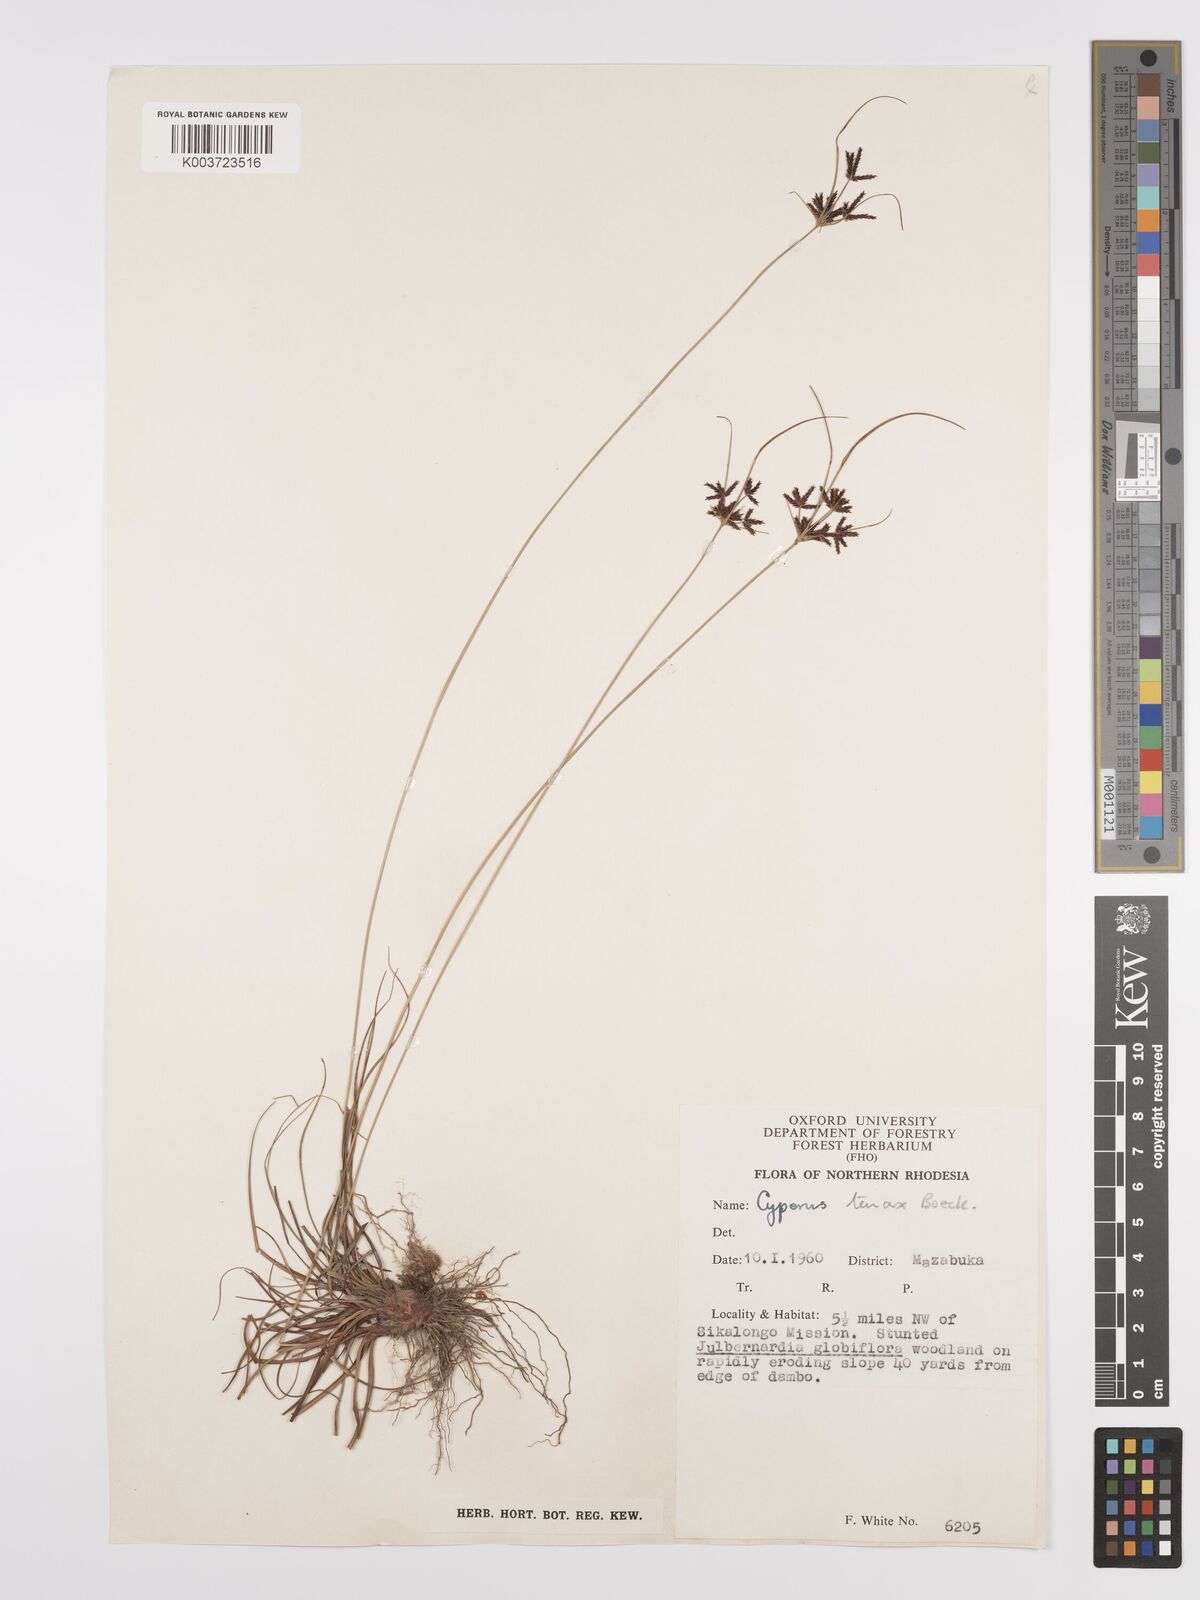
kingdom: Plantae
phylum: Tracheophyta
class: Liliopsida
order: Poales
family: Cyperaceae
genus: Cyperus
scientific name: Cyperus tenax
